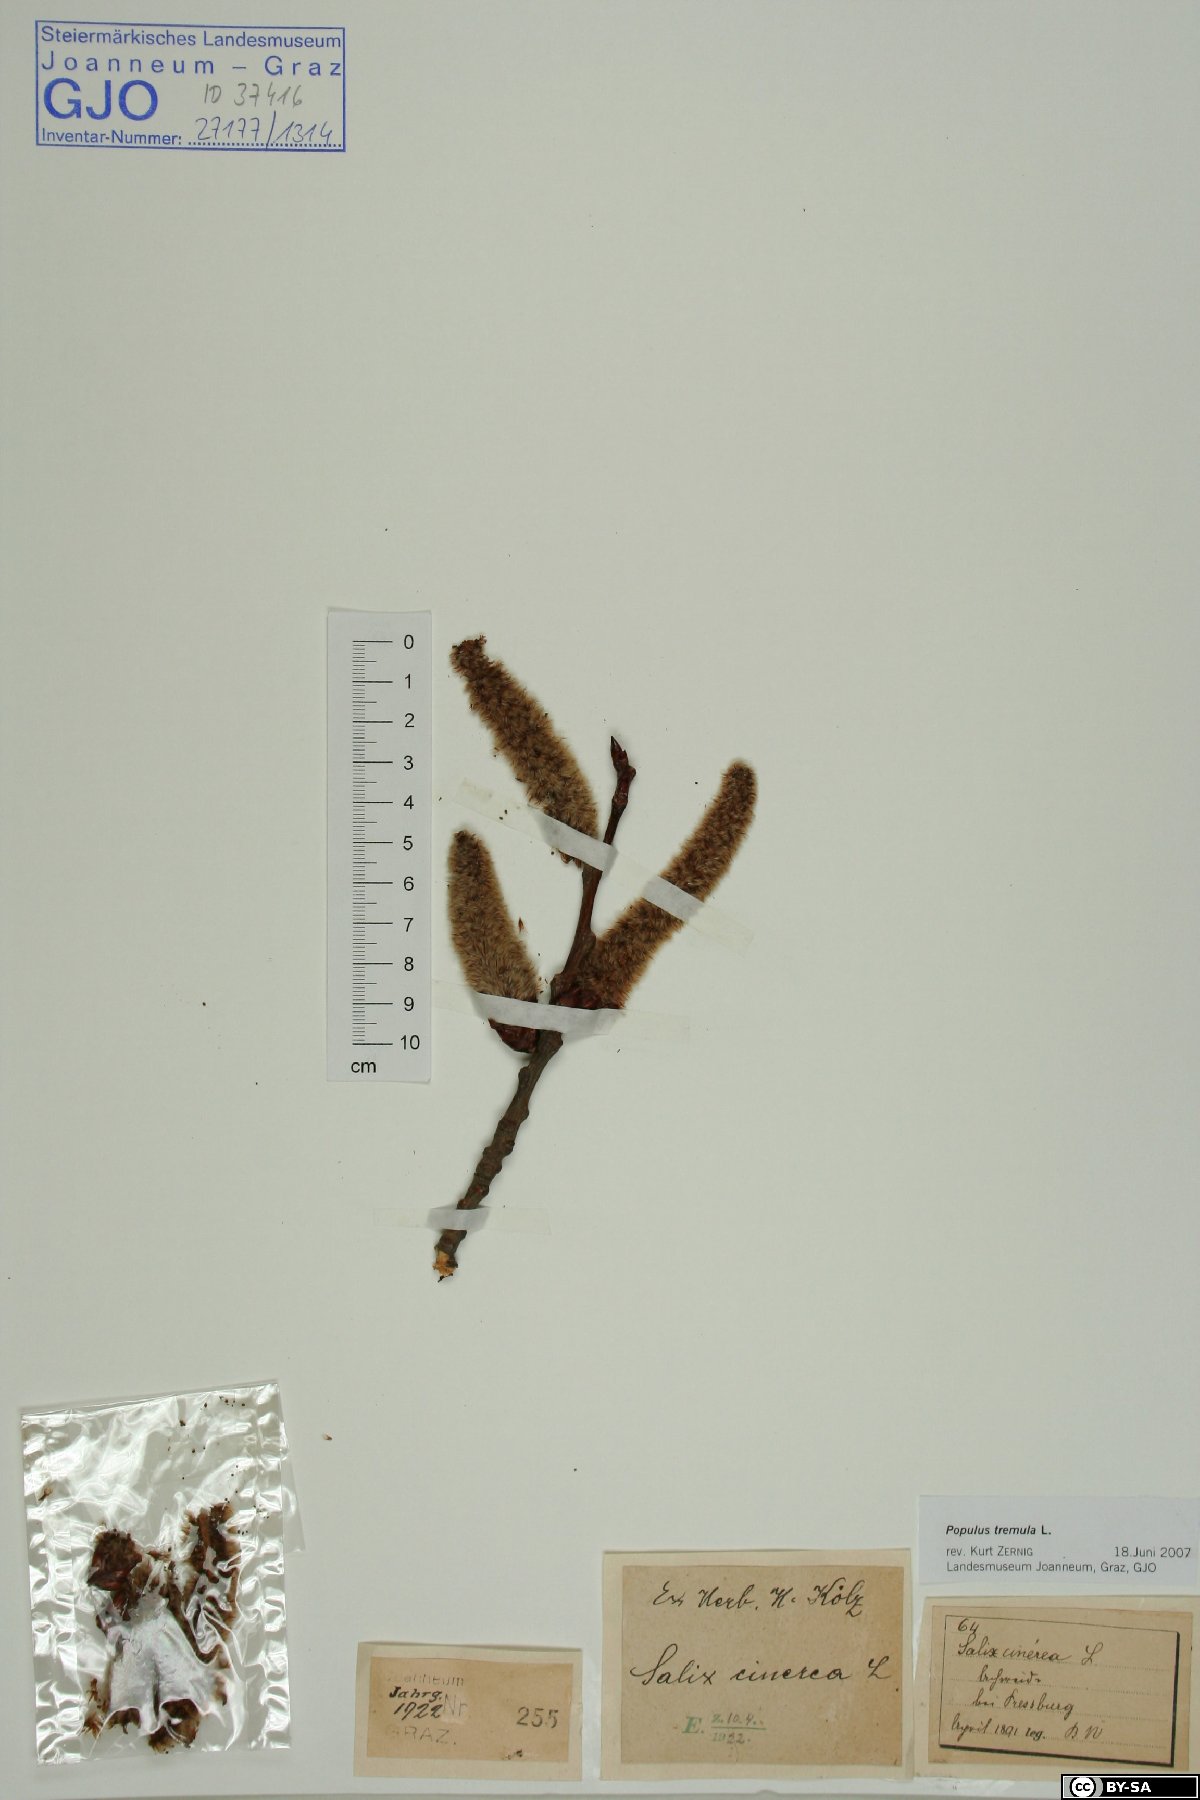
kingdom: Plantae
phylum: Tracheophyta
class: Magnoliopsida
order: Malpighiales
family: Salicaceae
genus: Populus
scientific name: Populus tremula
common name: European aspen
